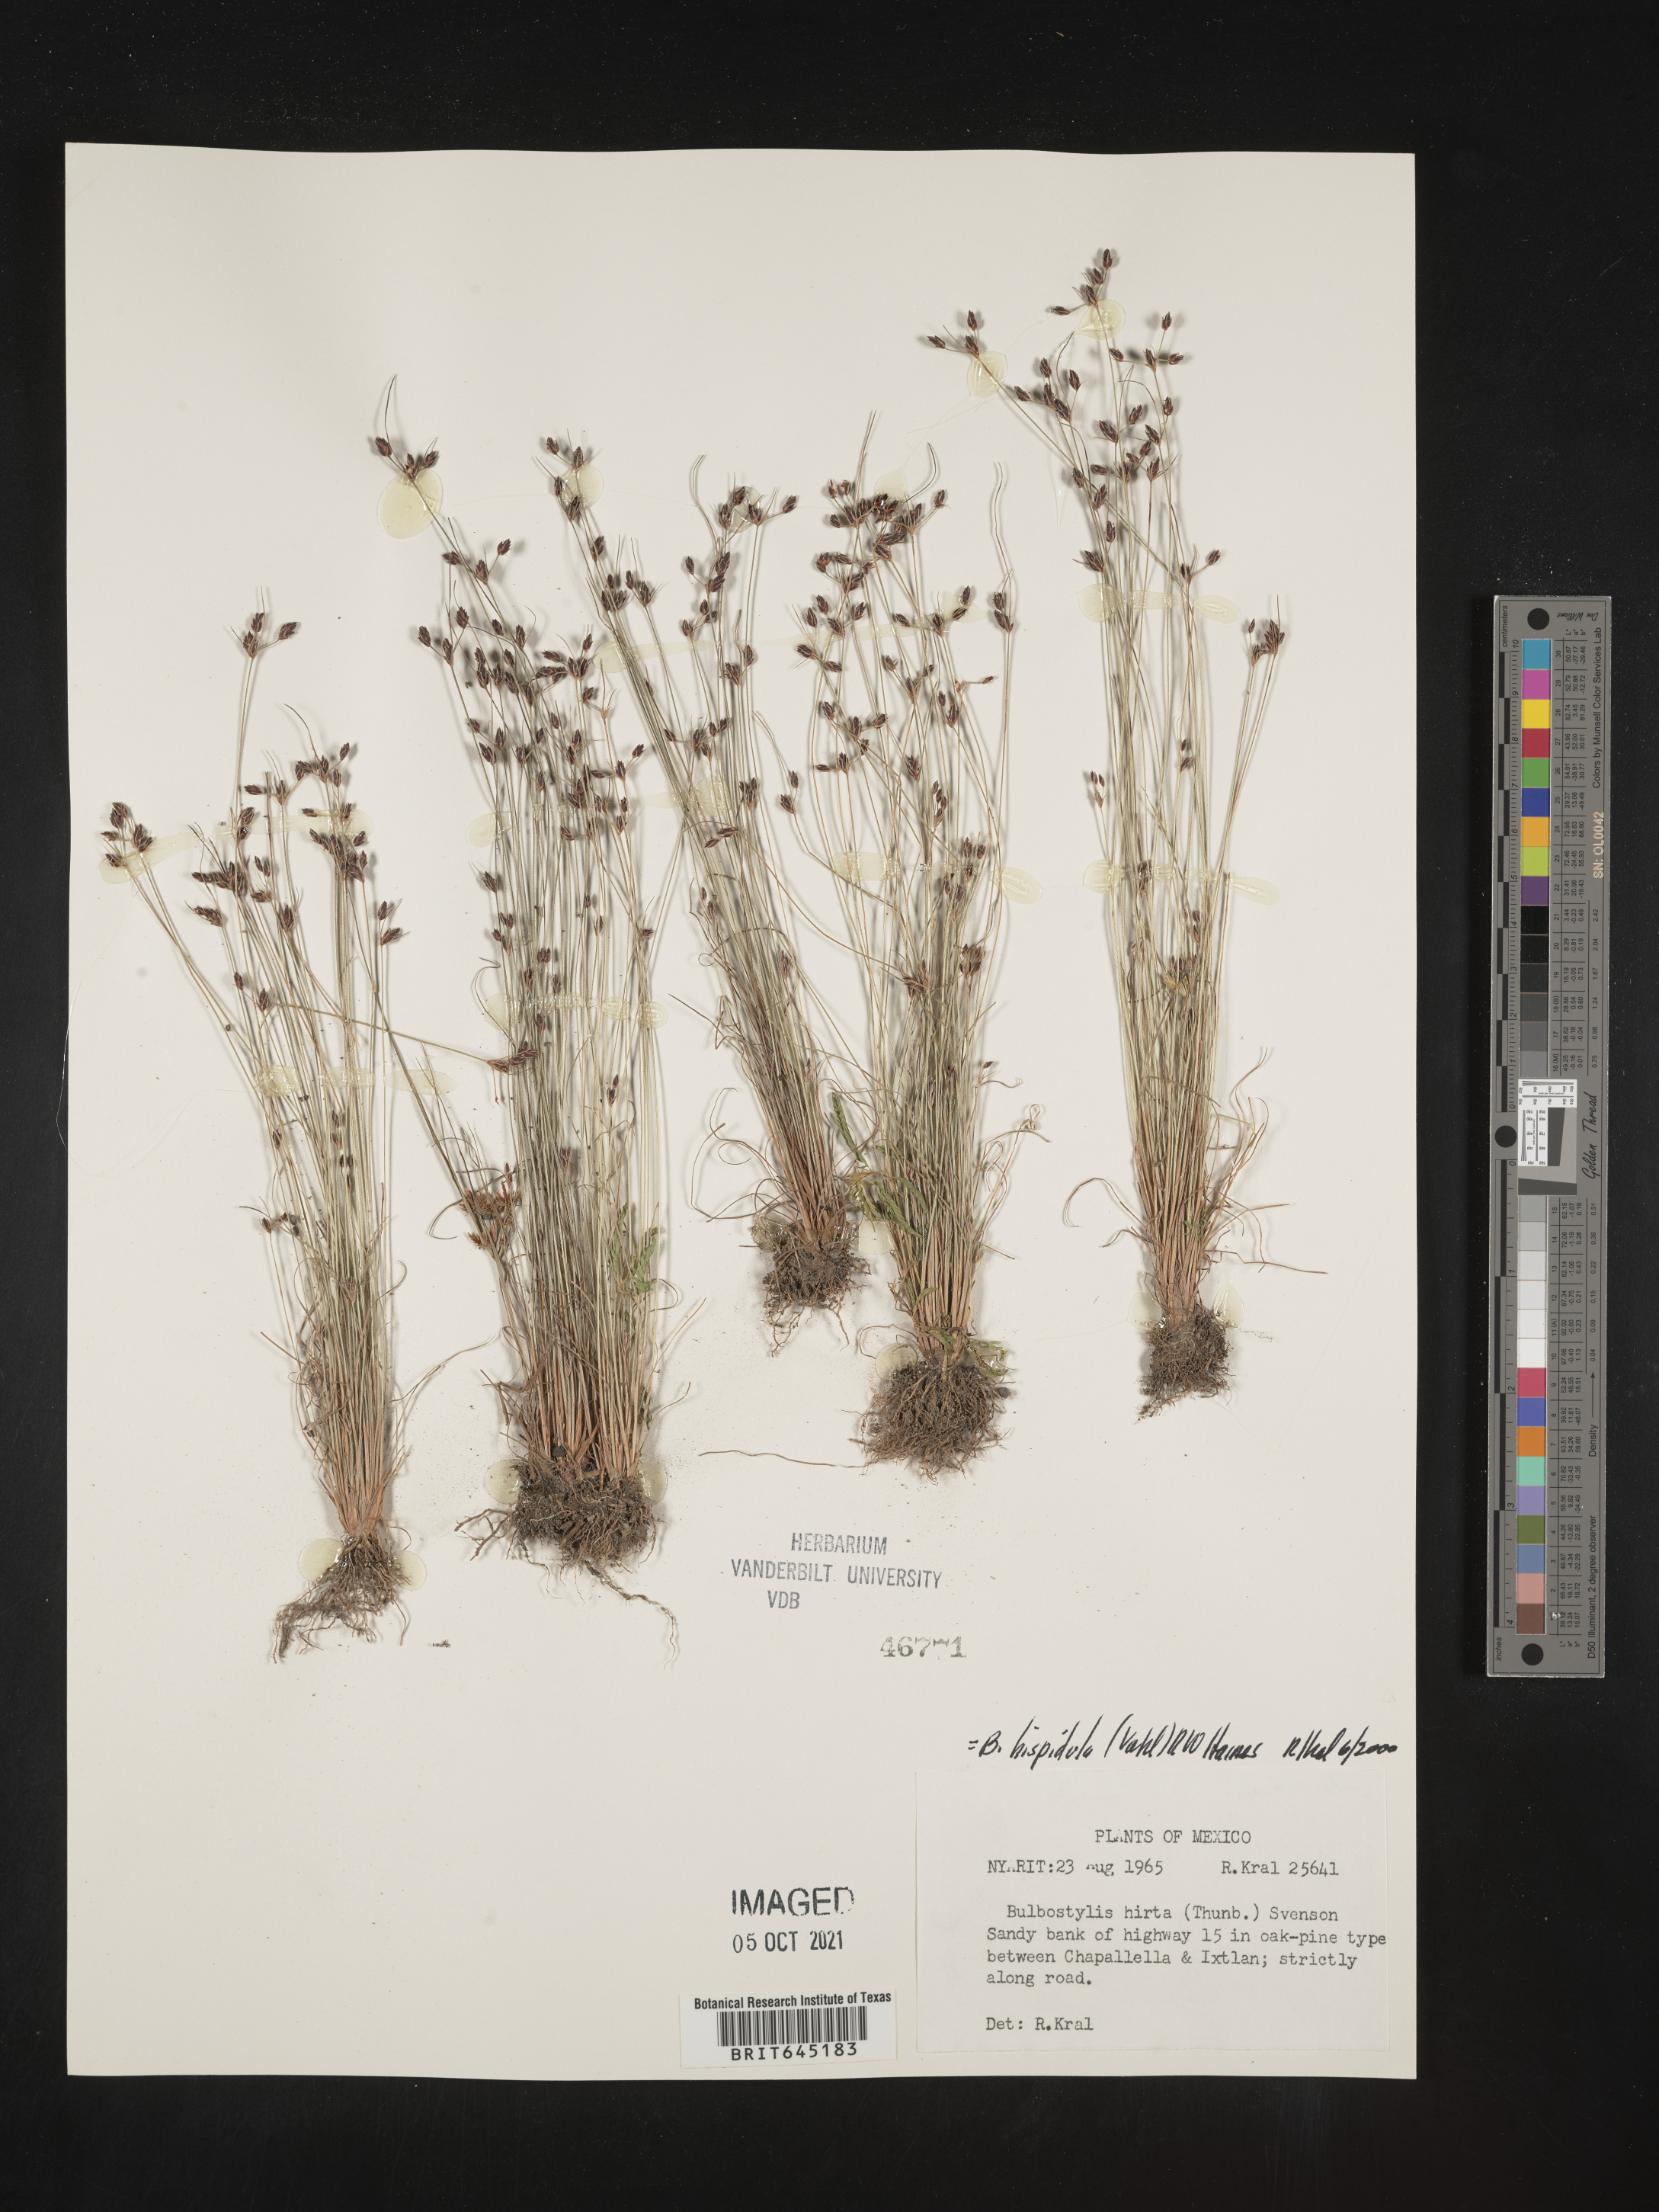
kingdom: Plantae
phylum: Tracheophyta
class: Liliopsida
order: Poales
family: Cyperaceae
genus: Bulbostylis
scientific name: Bulbostylis
